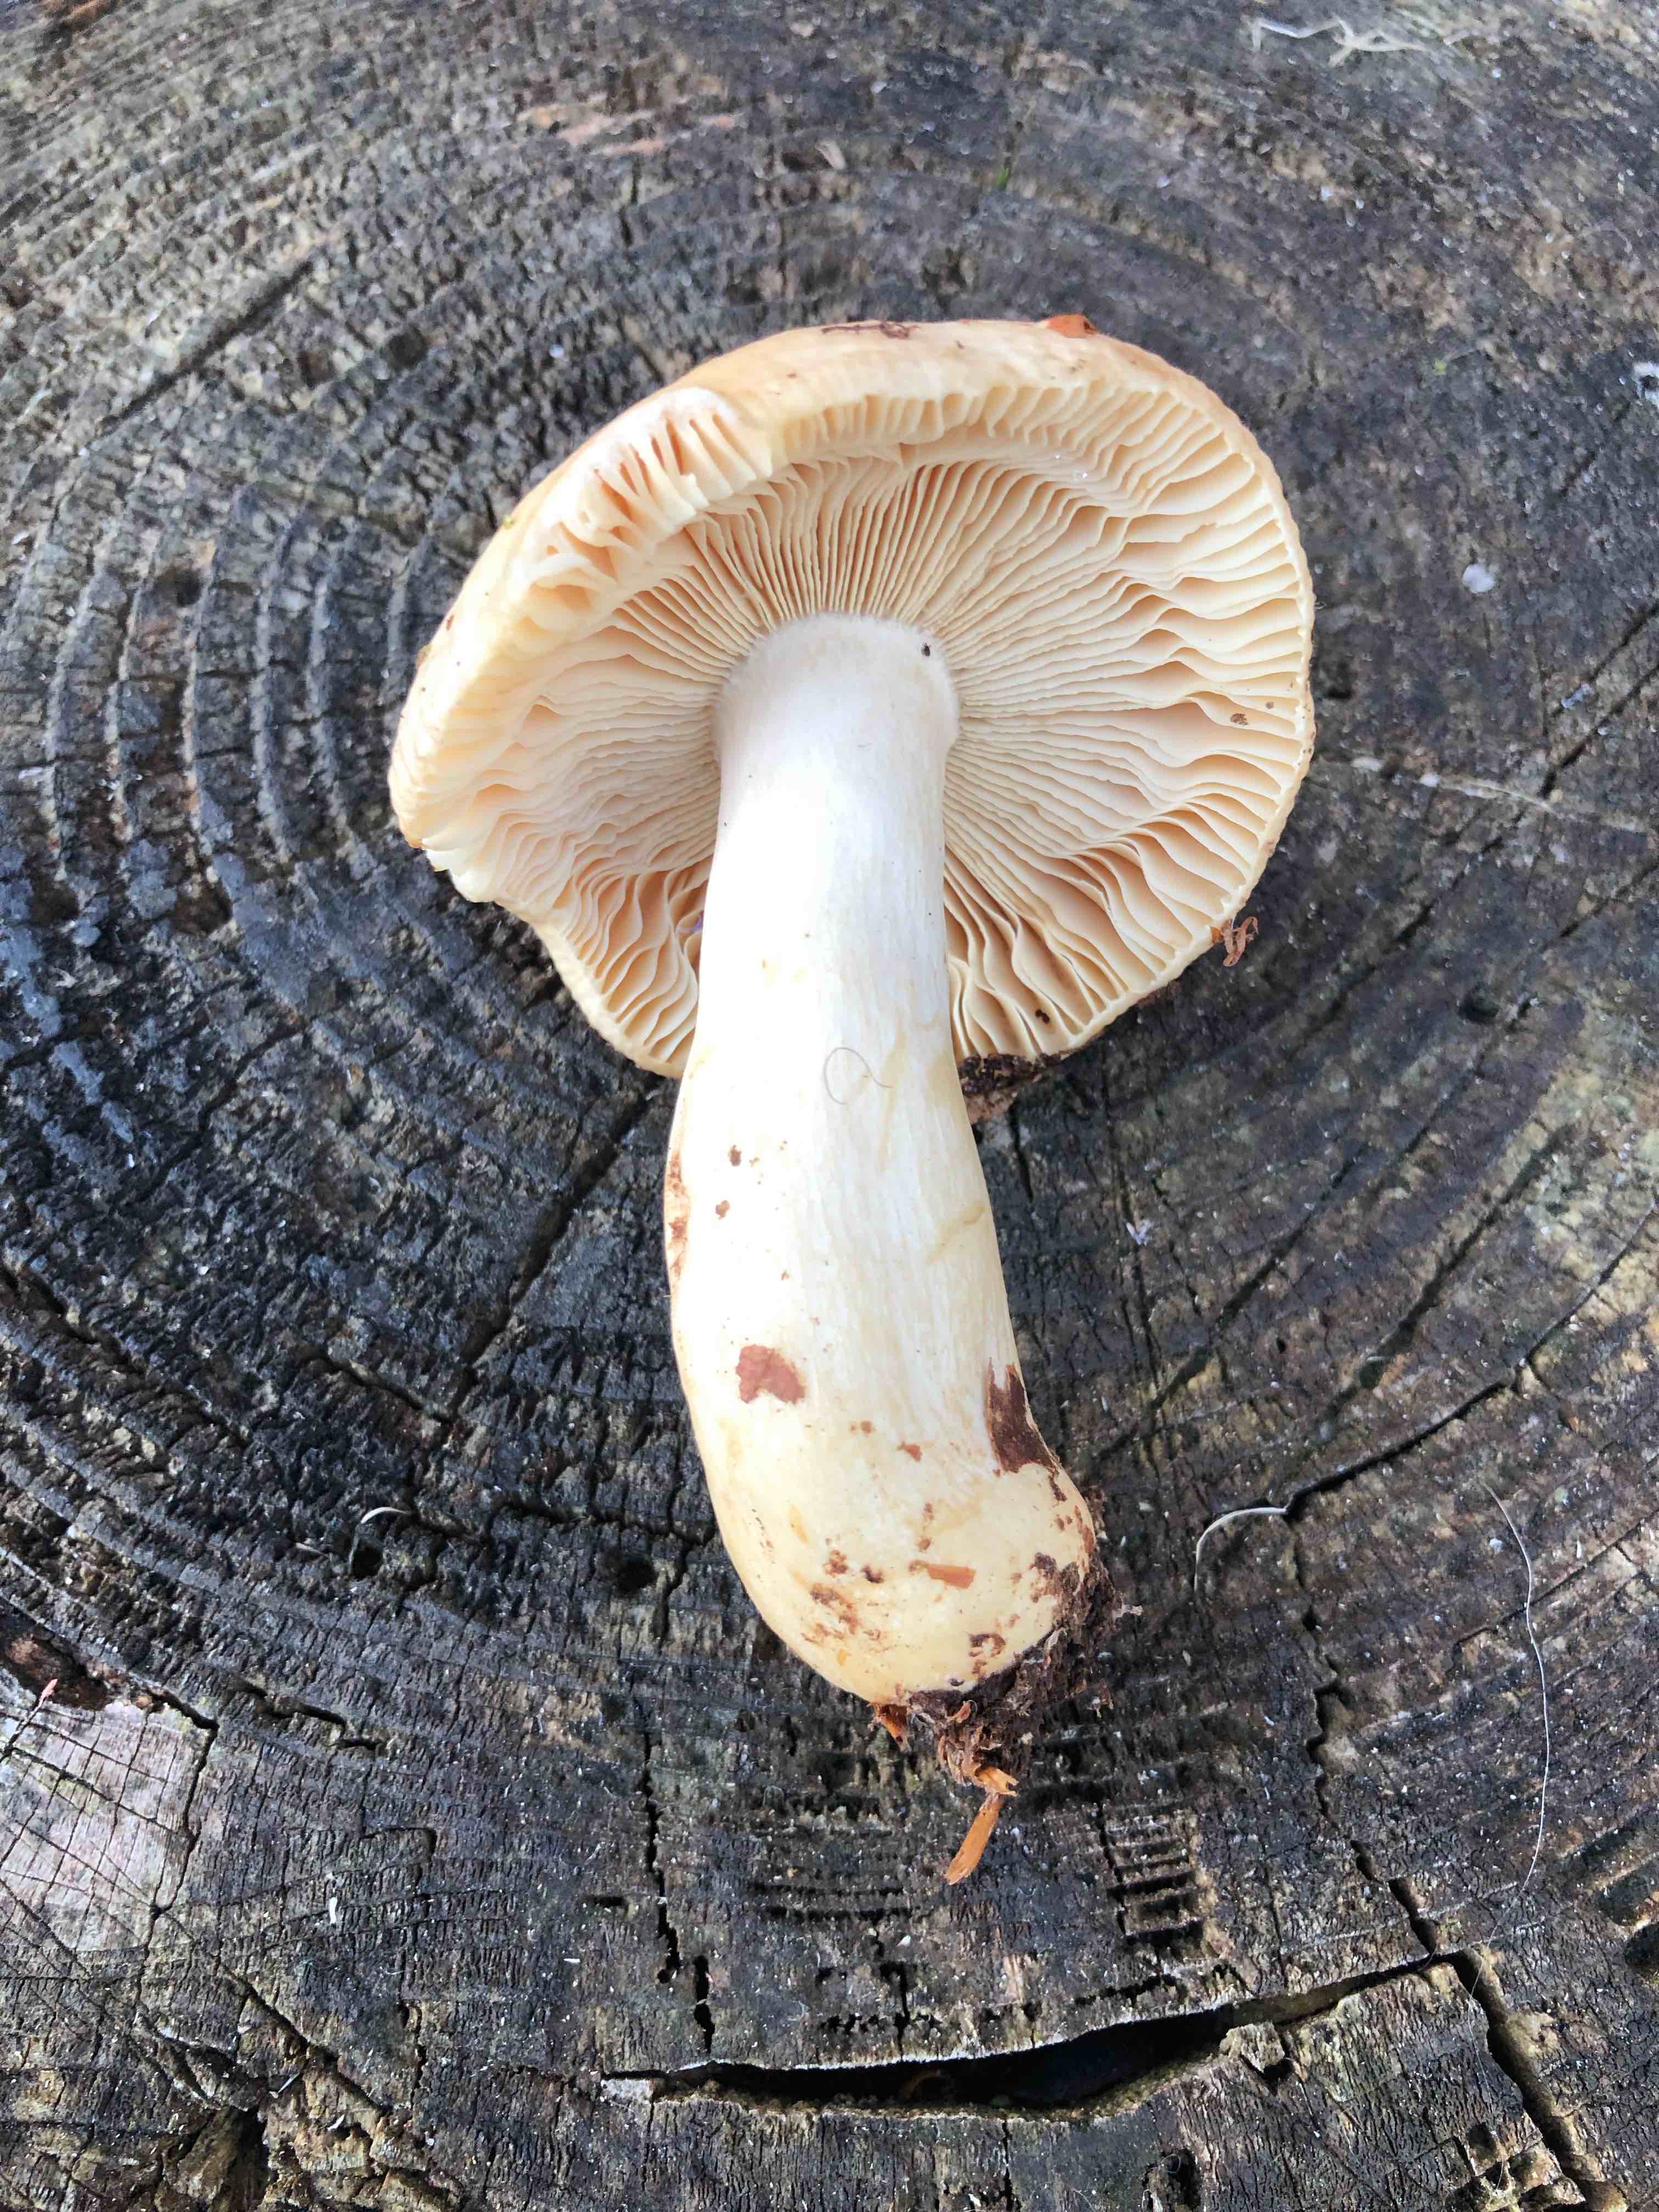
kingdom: Fungi
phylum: Basidiomycota
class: Agaricomycetes
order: Russulales
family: Russulaceae
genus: Russula
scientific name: Russula fellea
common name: galde-skørhat
